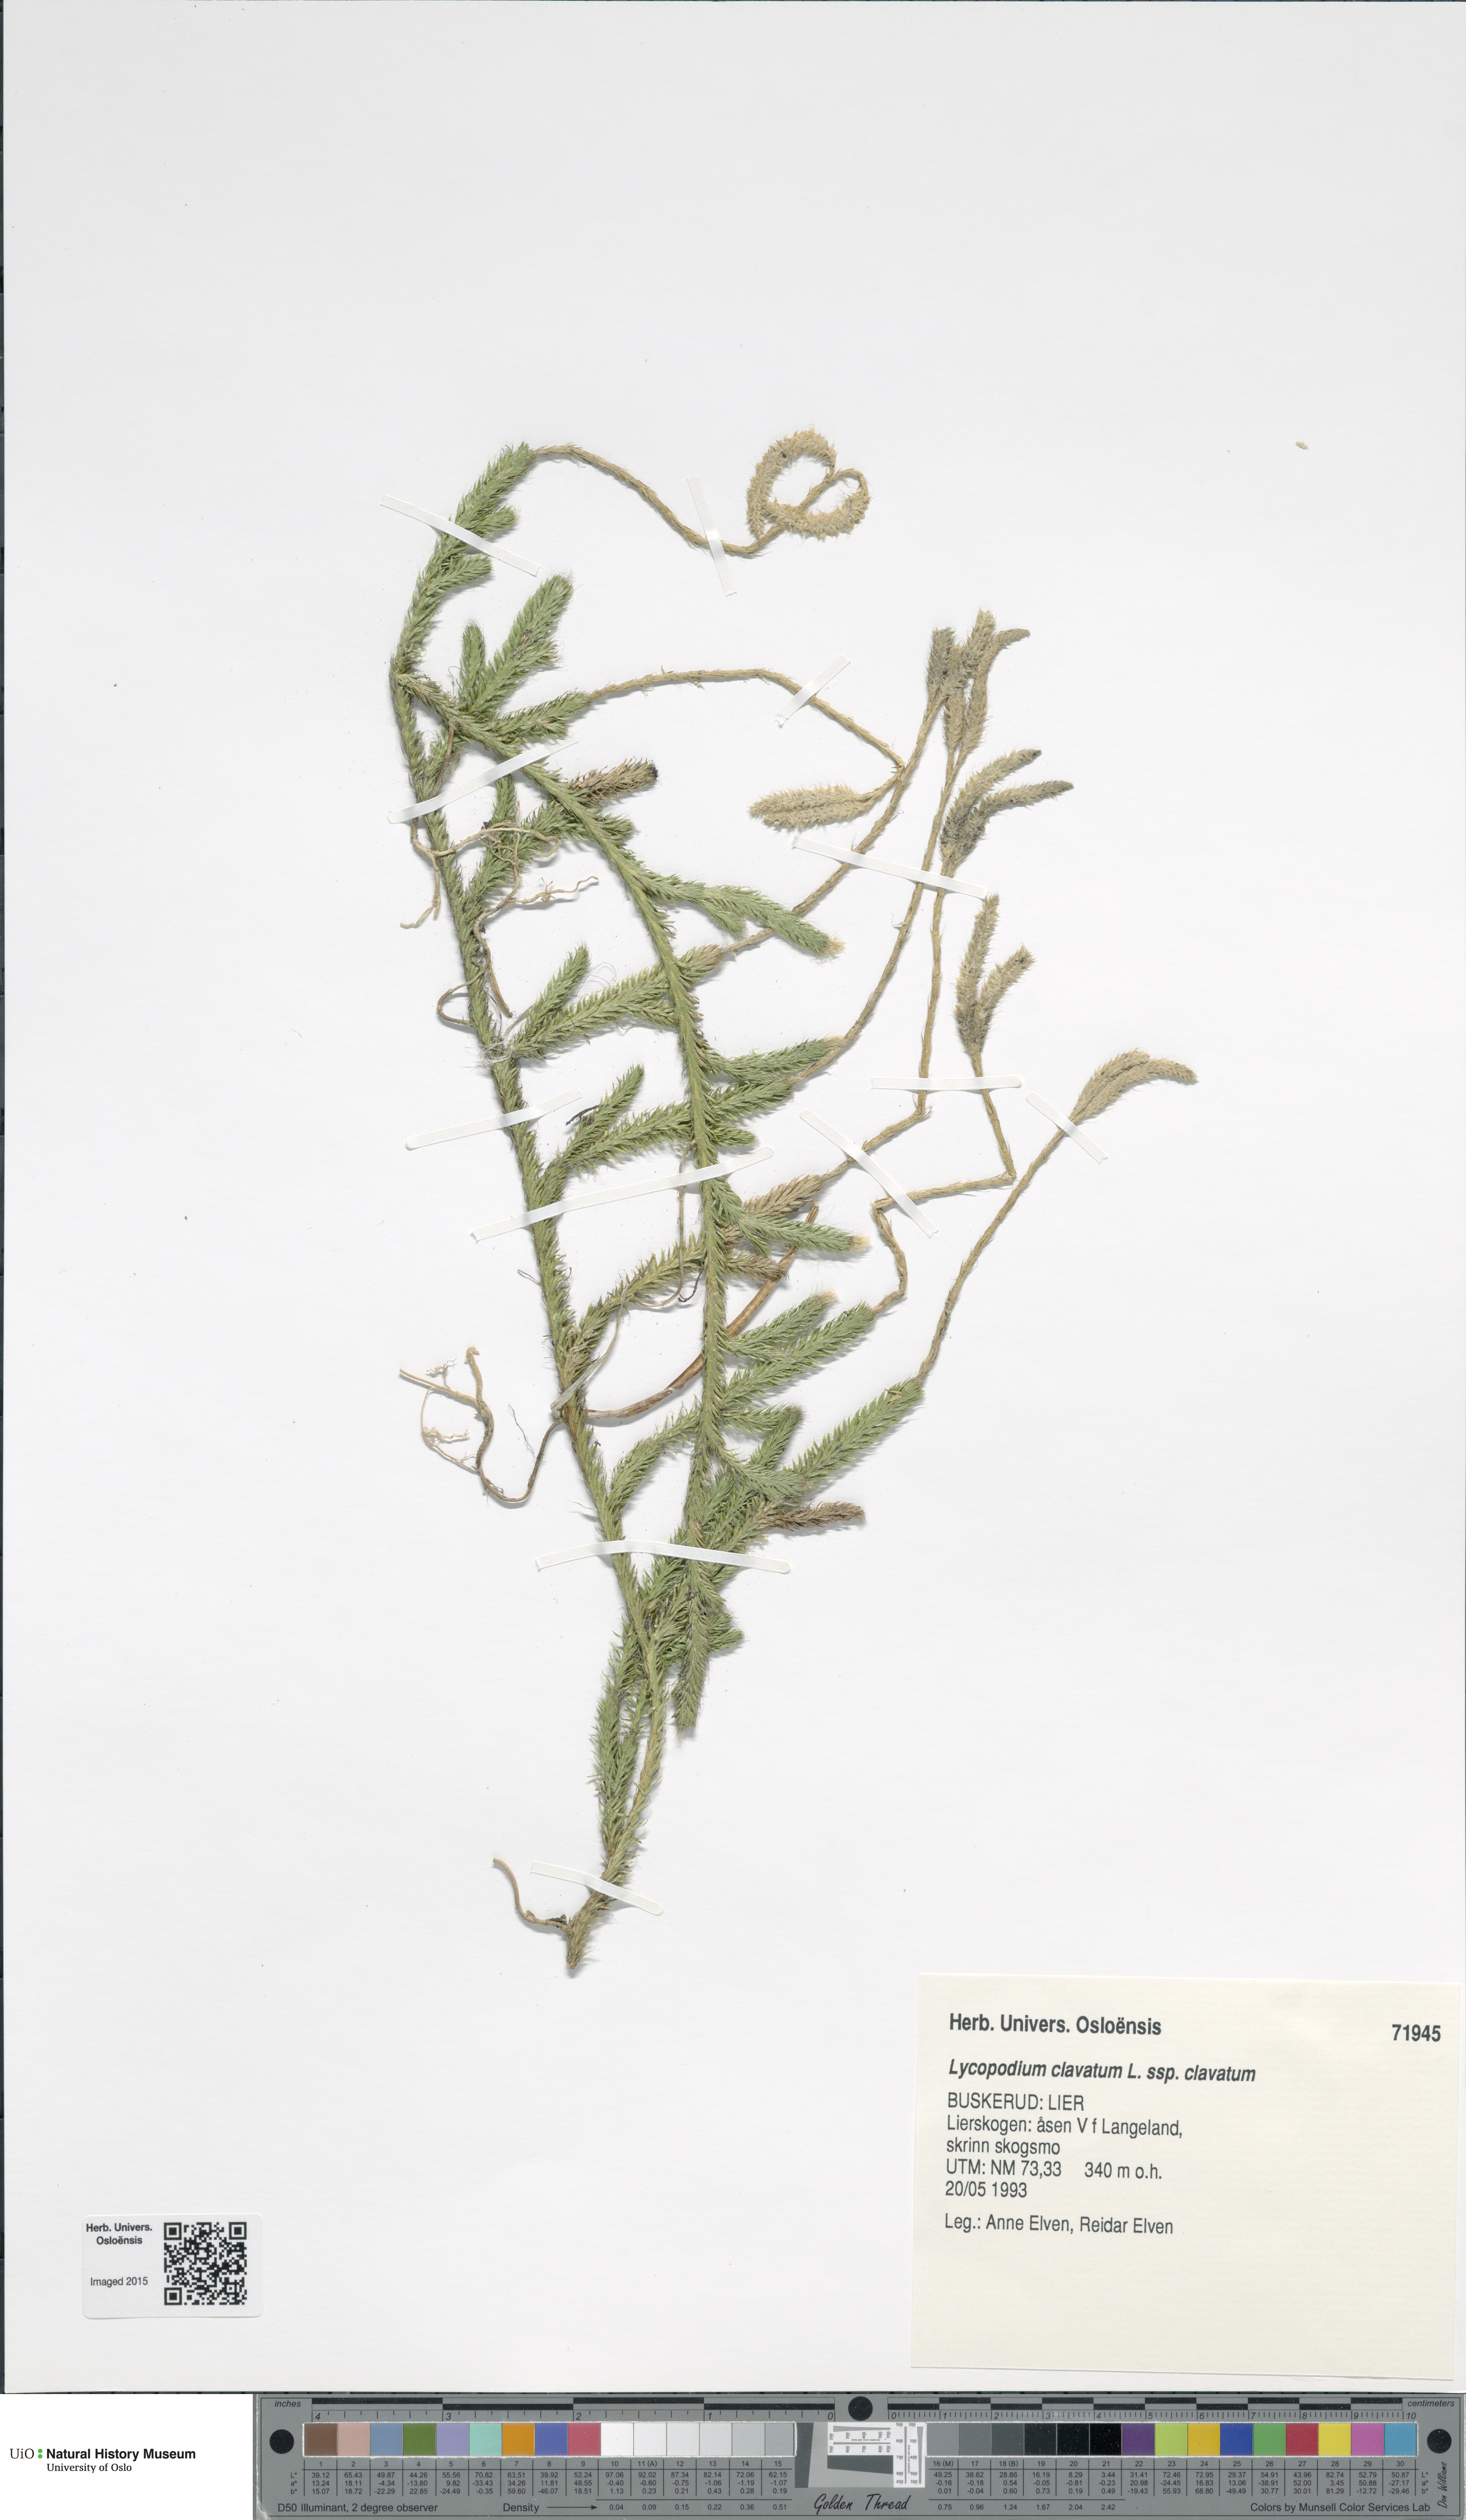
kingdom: Plantae
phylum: Tracheophyta
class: Lycopodiopsida
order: Lycopodiales
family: Lycopodiaceae
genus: Lycopodium
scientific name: Lycopodium clavatum
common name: Stag's-horn clubmoss
